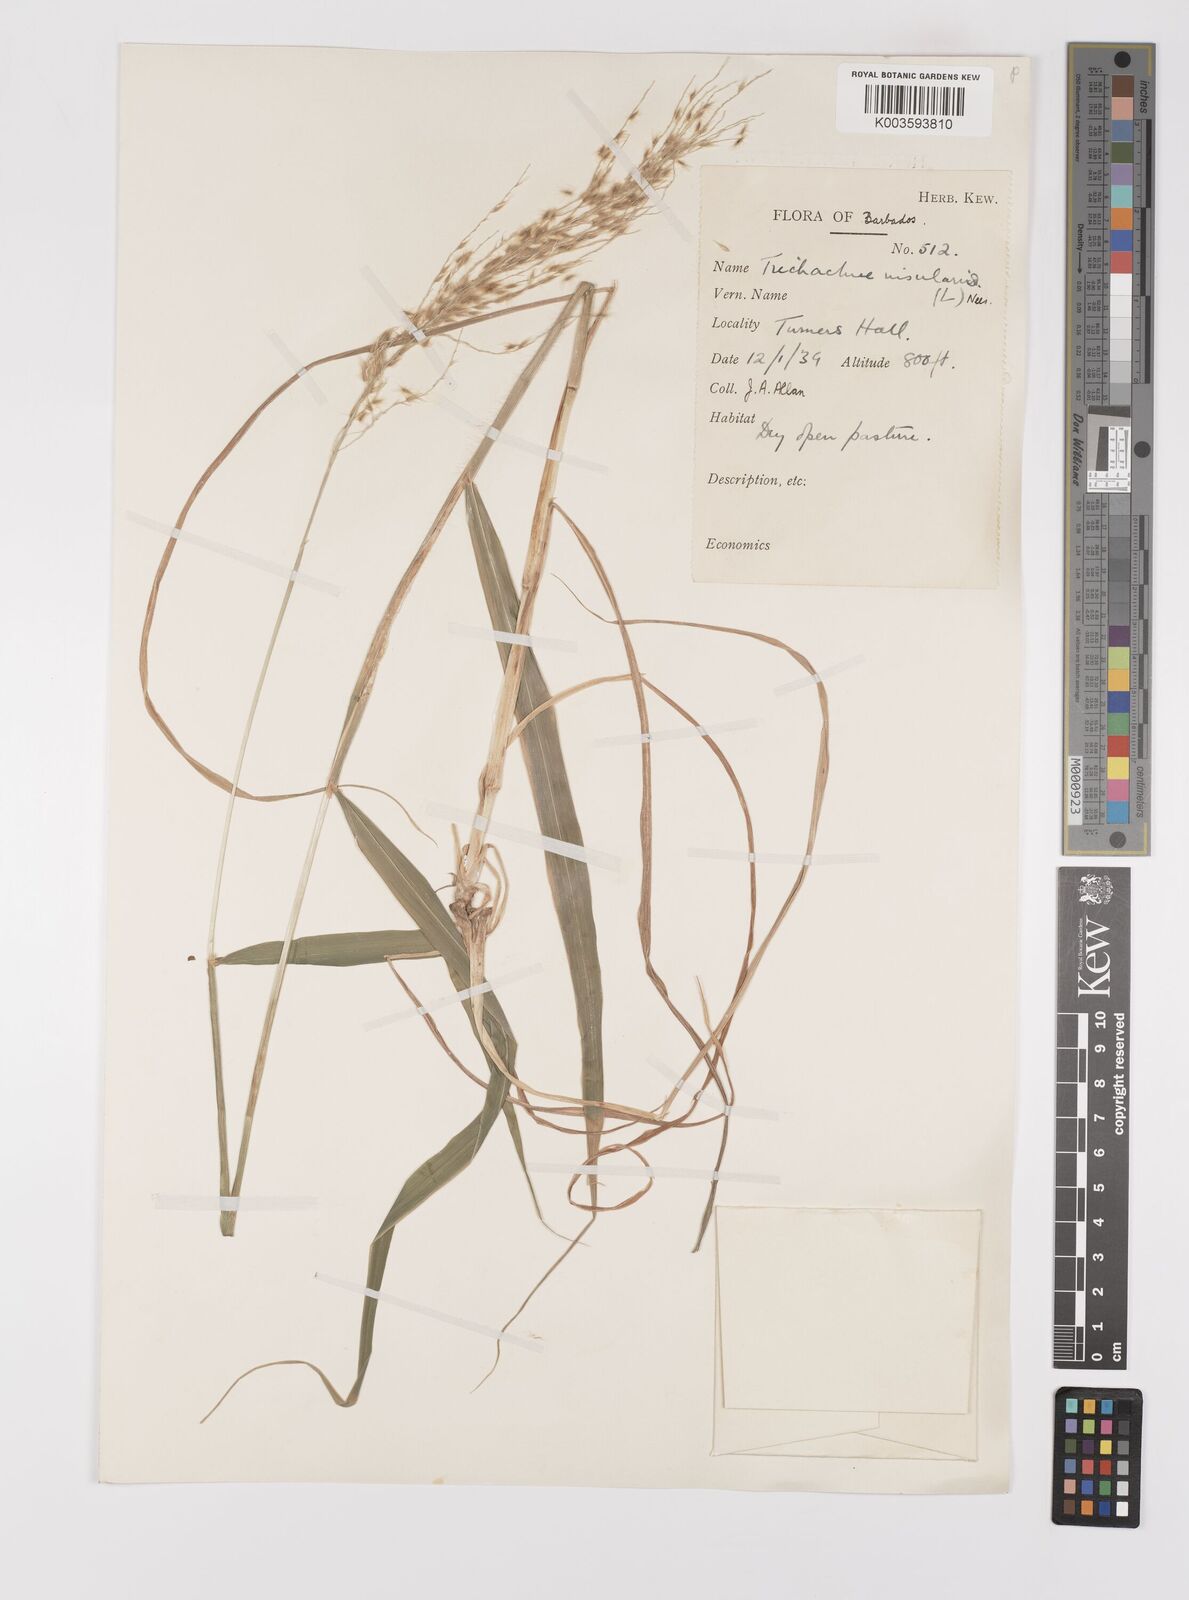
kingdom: Plantae
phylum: Tracheophyta
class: Liliopsida
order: Poales
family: Poaceae
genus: Digitaria
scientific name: Digitaria insularis
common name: Sourgrass
